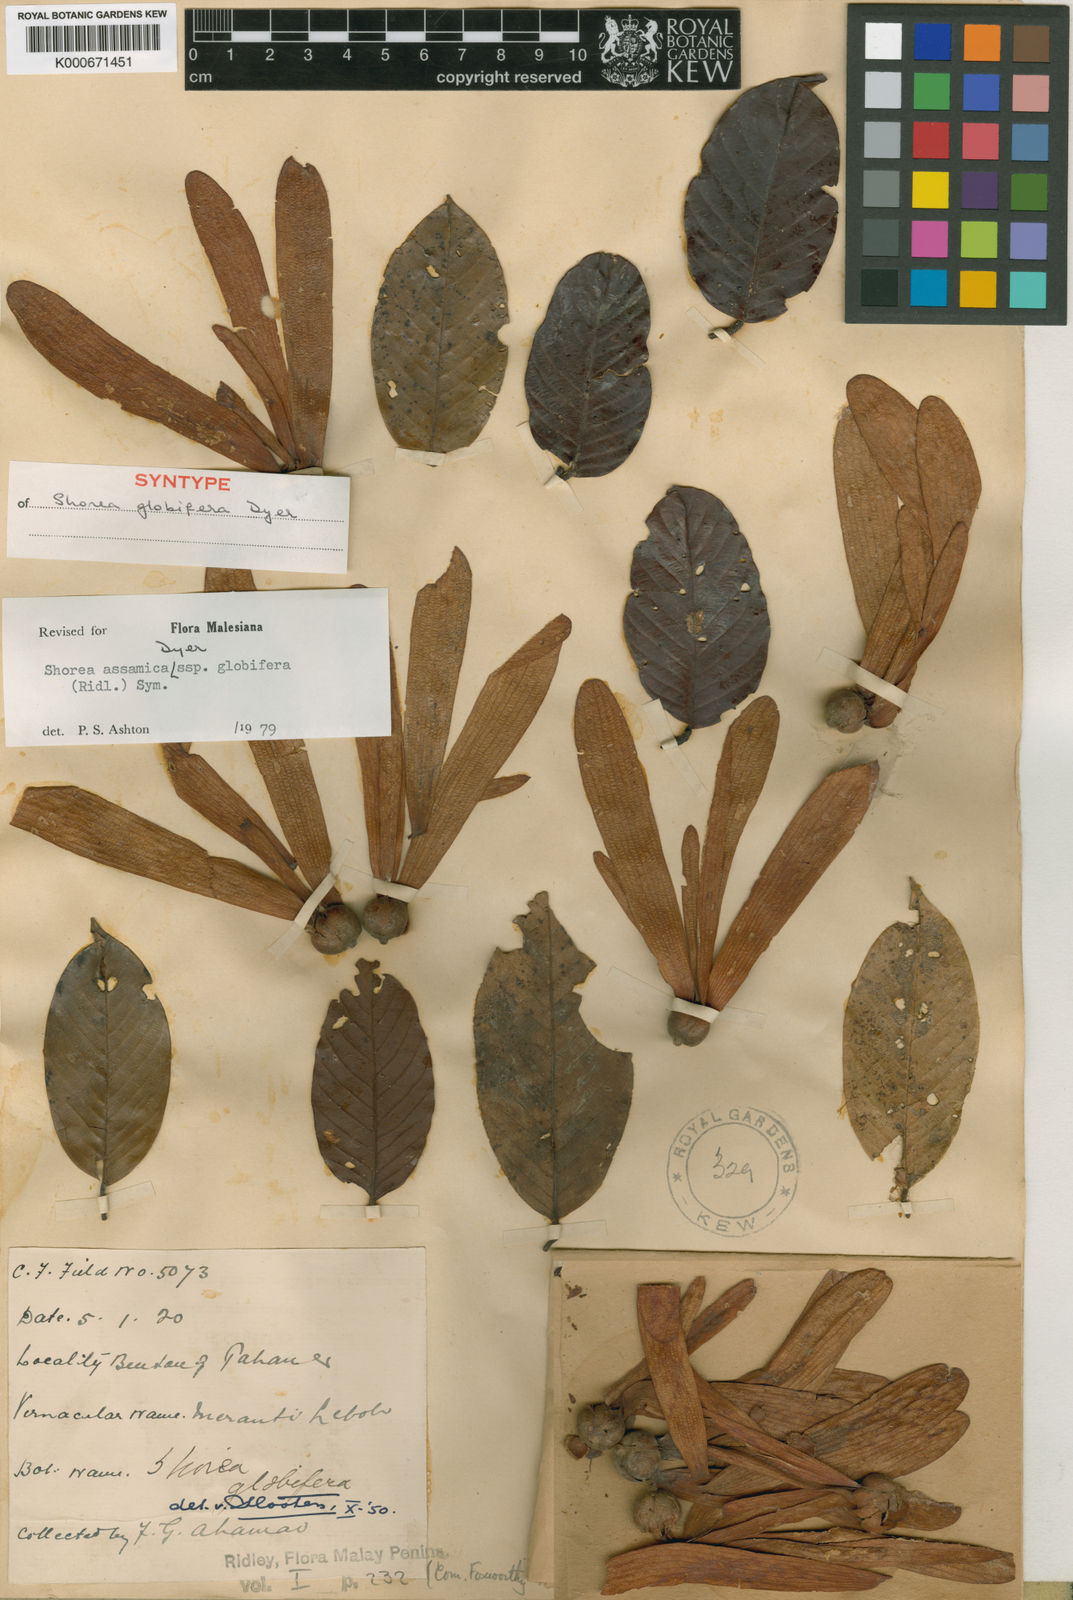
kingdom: Plantae
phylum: Tracheophyta
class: Magnoliopsida
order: Malvales
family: Dipterocarpaceae
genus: Anthoshorea
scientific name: Anthoshorea assamica
